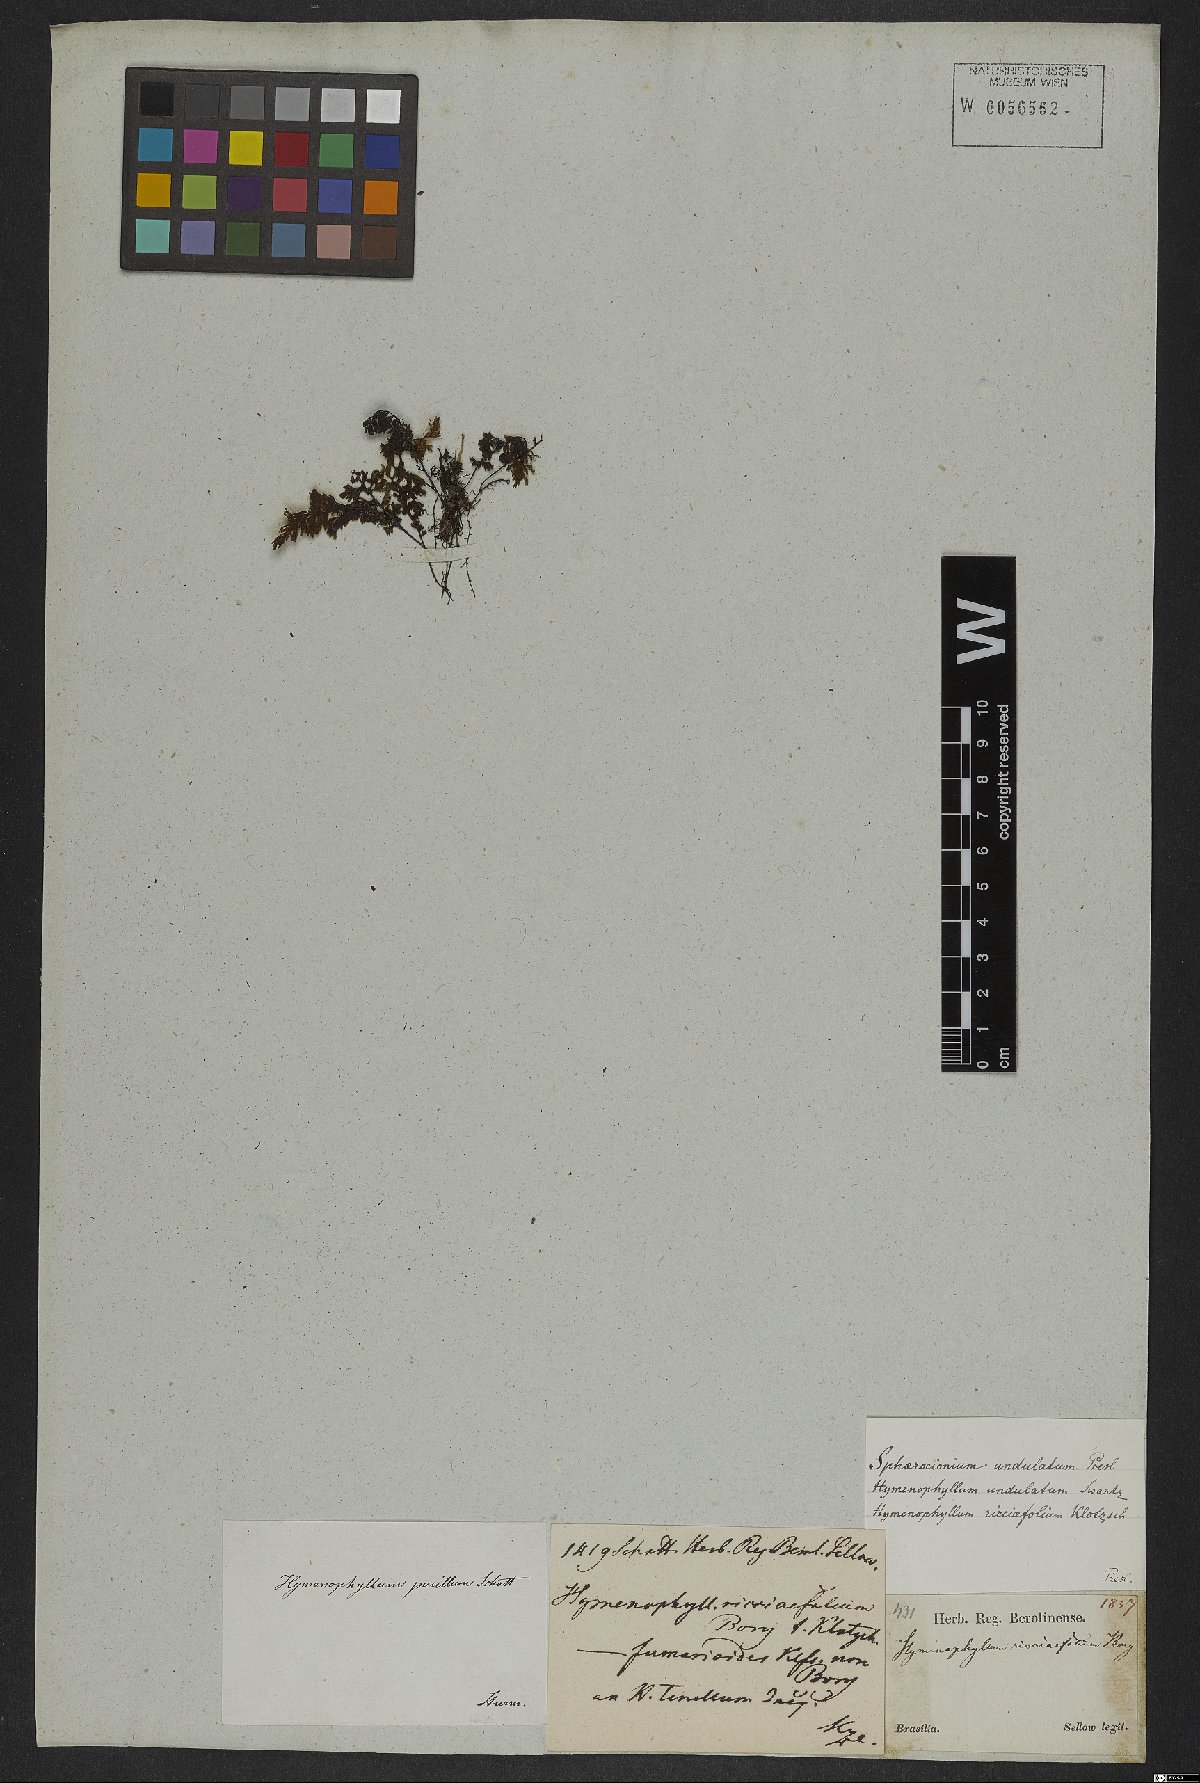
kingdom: Plantae
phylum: Tracheophyta
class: Polypodiopsida
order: Hymenophyllales
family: Hymenophyllaceae
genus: Hymenophyllum
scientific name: Hymenophyllum undulatum
